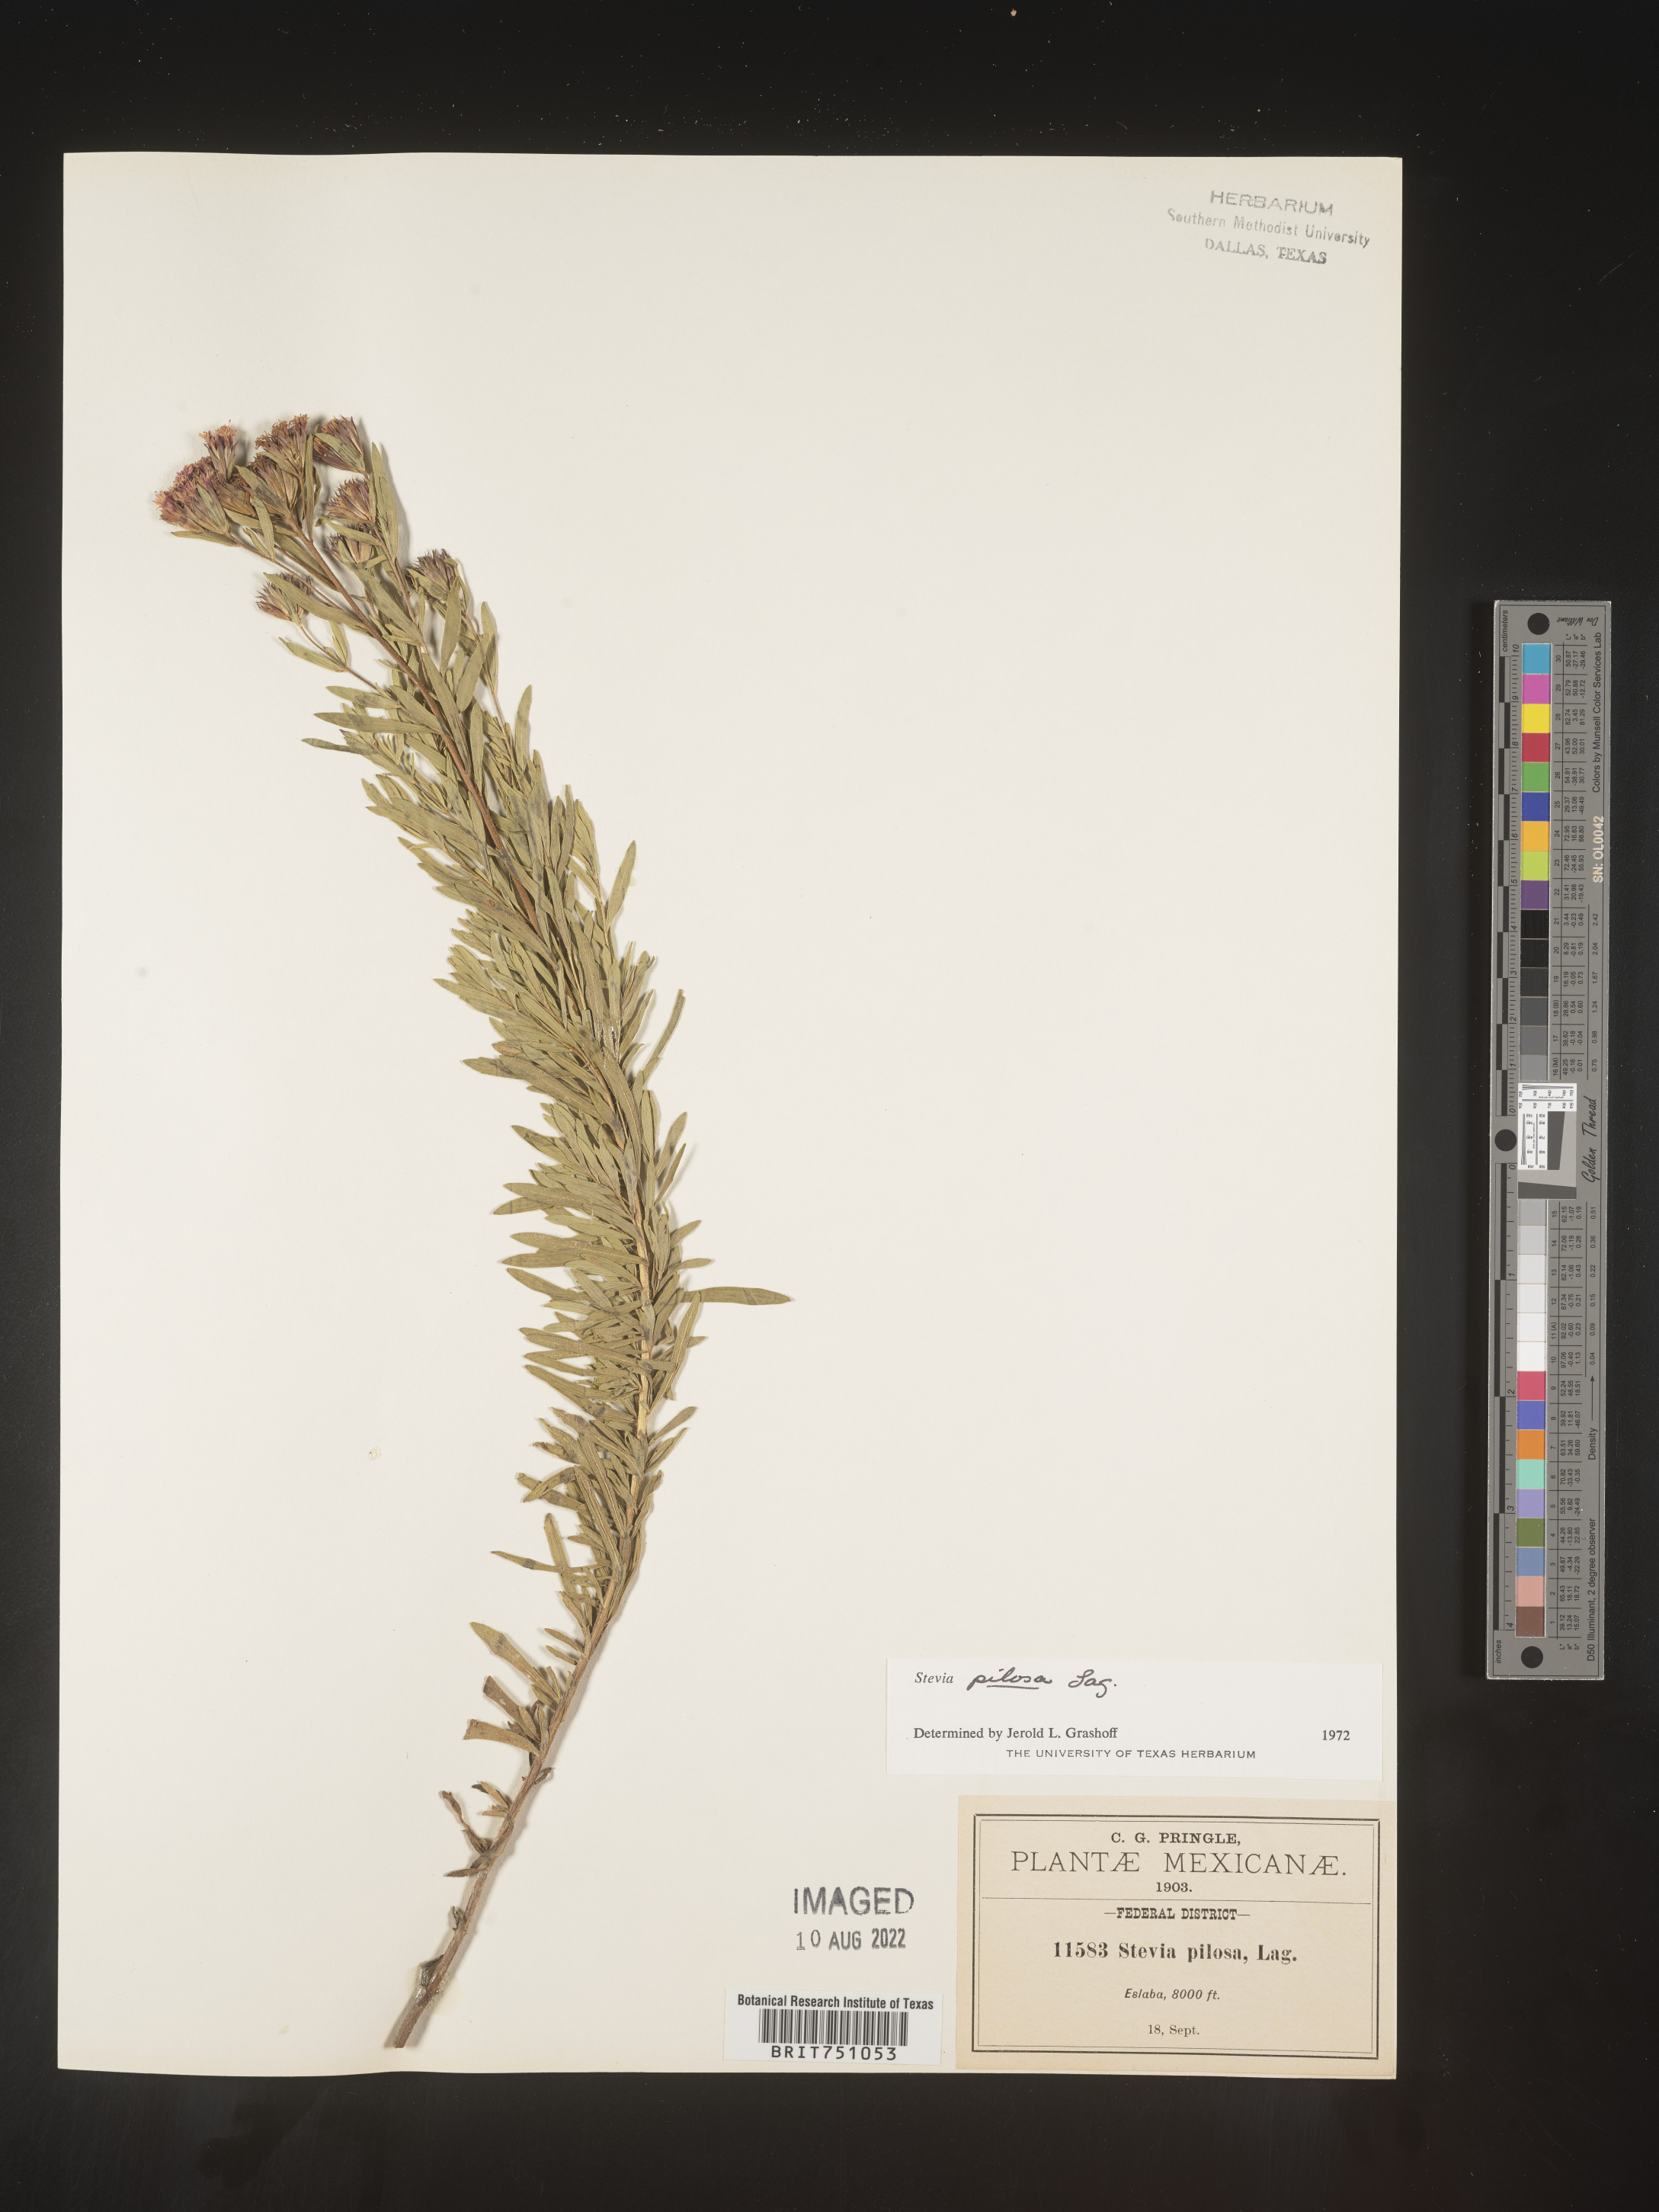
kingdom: Plantae
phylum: Tracheophyta
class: Magnoliopsida
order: Asterales
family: Asteraceae
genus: Stevia
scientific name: Stevia
